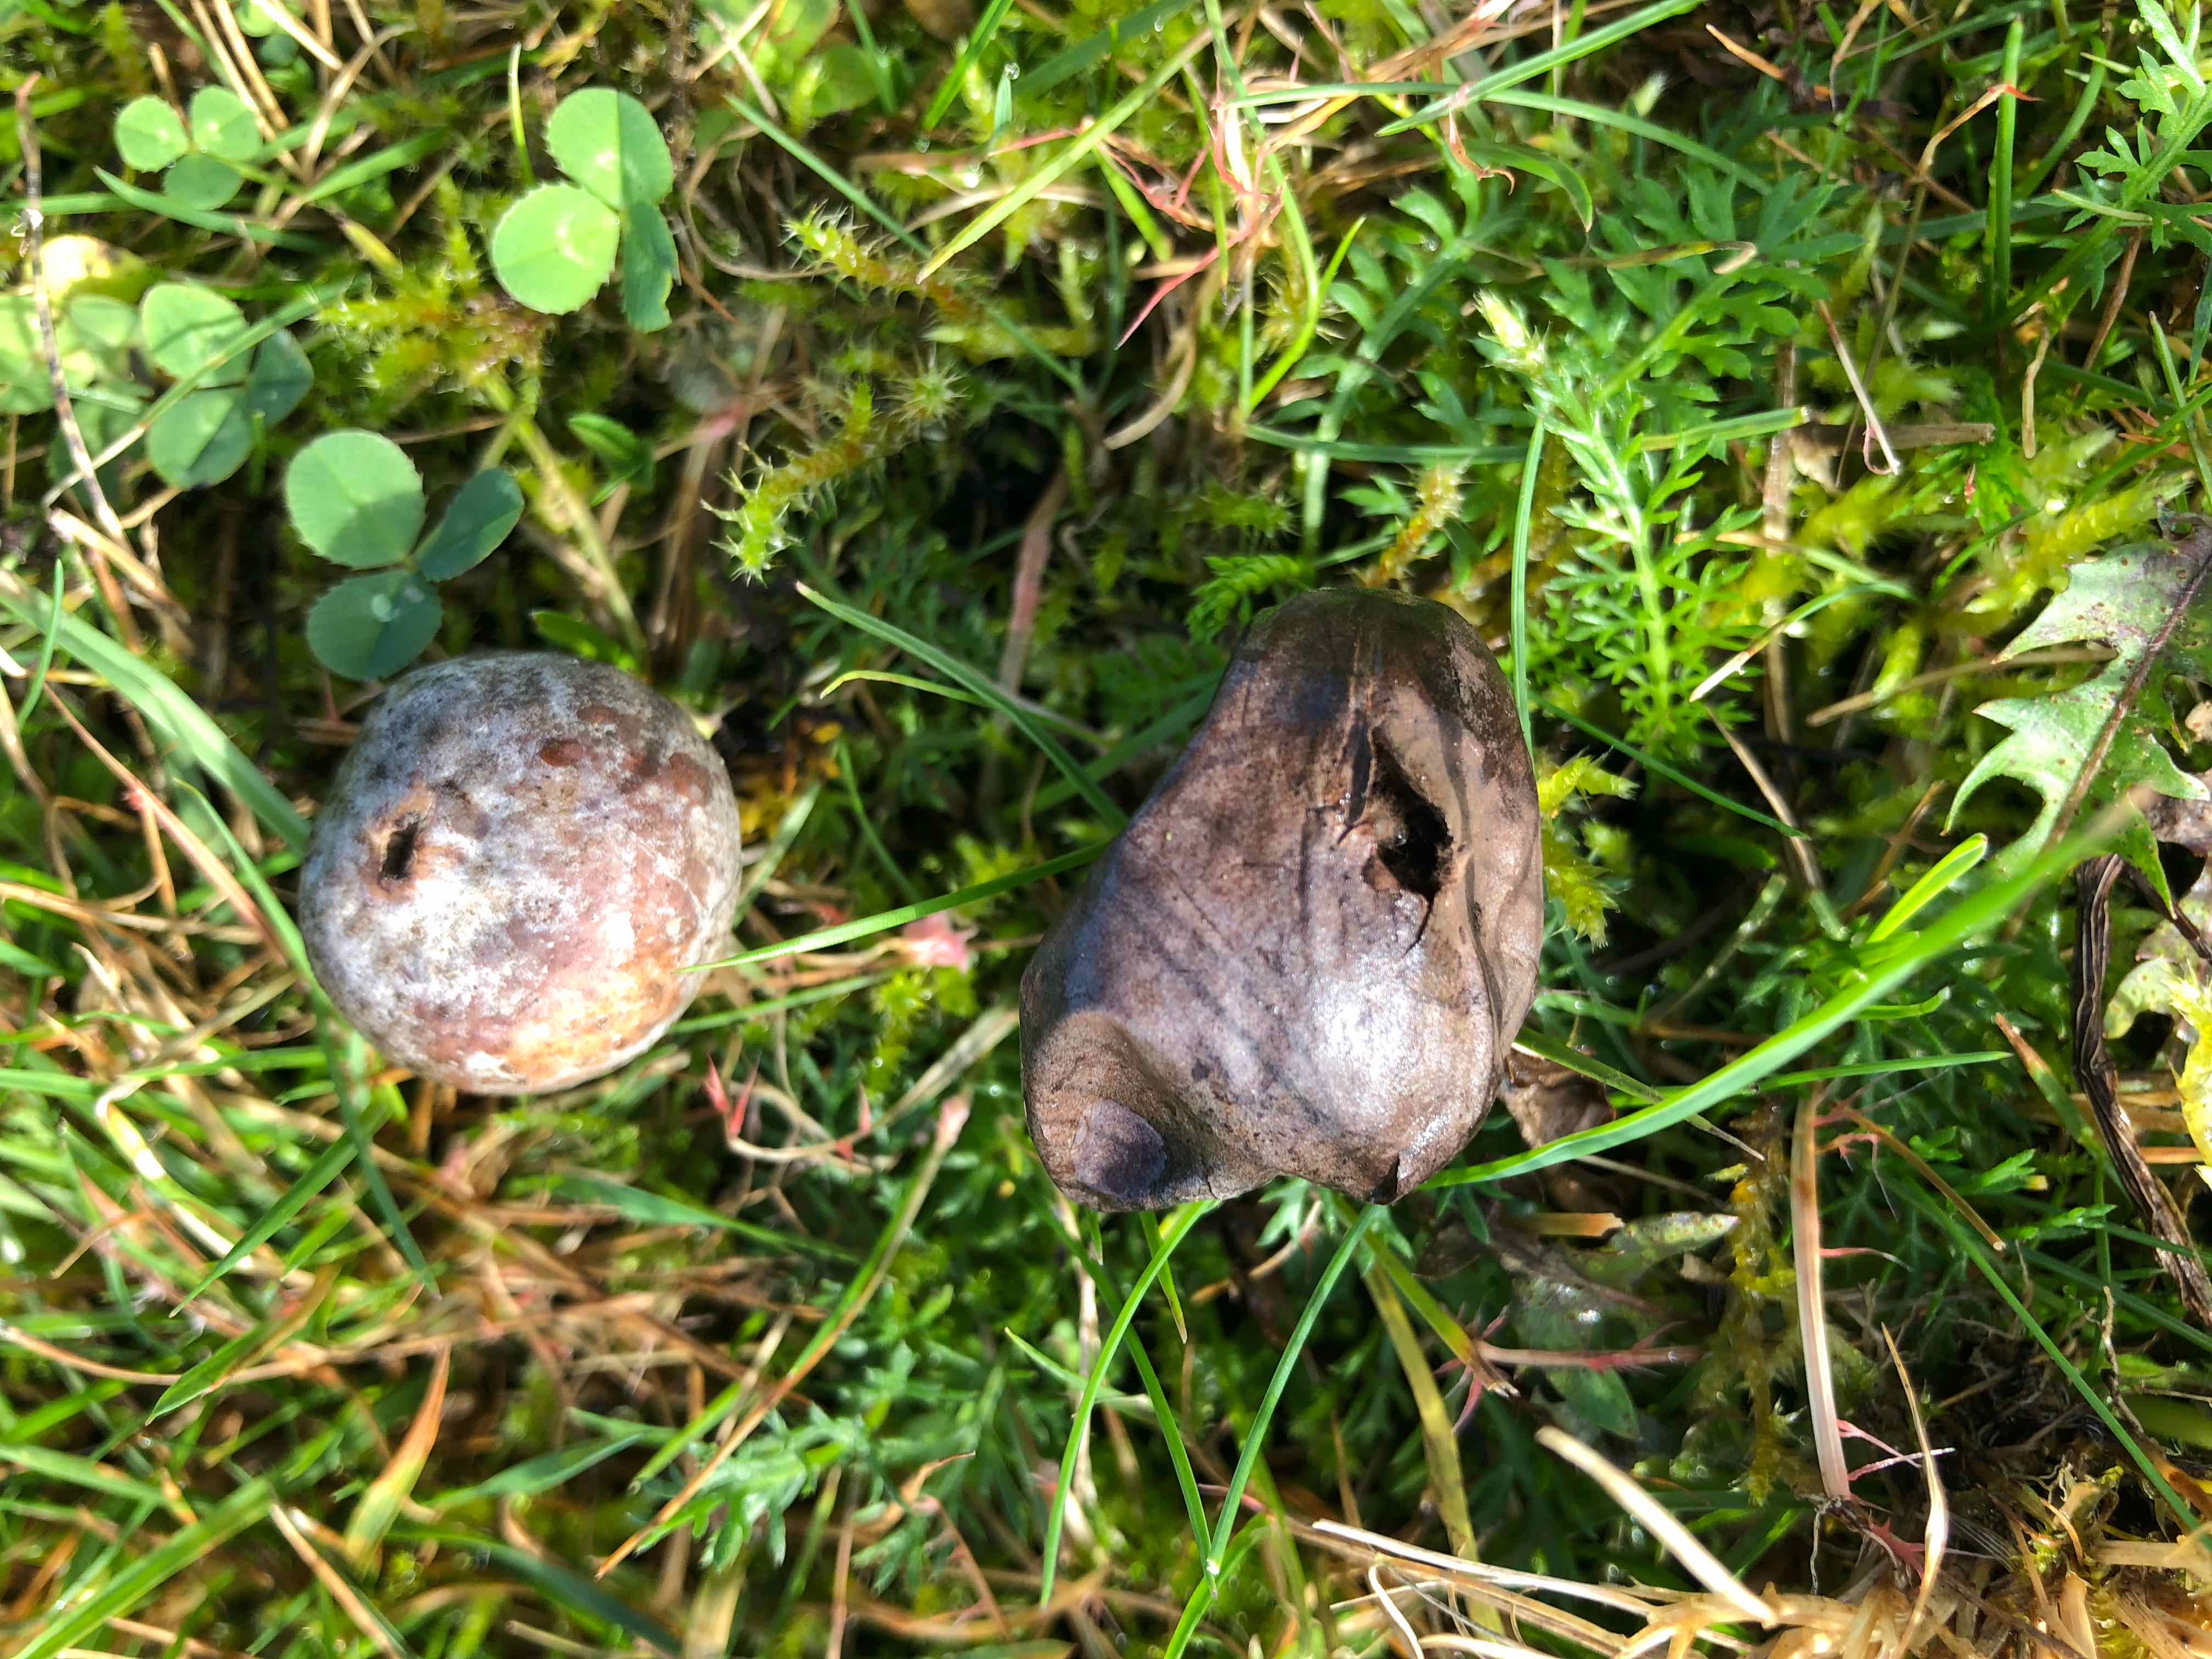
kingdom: Fungi
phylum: Basidiomycota
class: Agaricomycetes
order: Agaricales
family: Lycoperdaceae
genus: Bovista
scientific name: Bovista plumbea
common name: blygrå bovist
